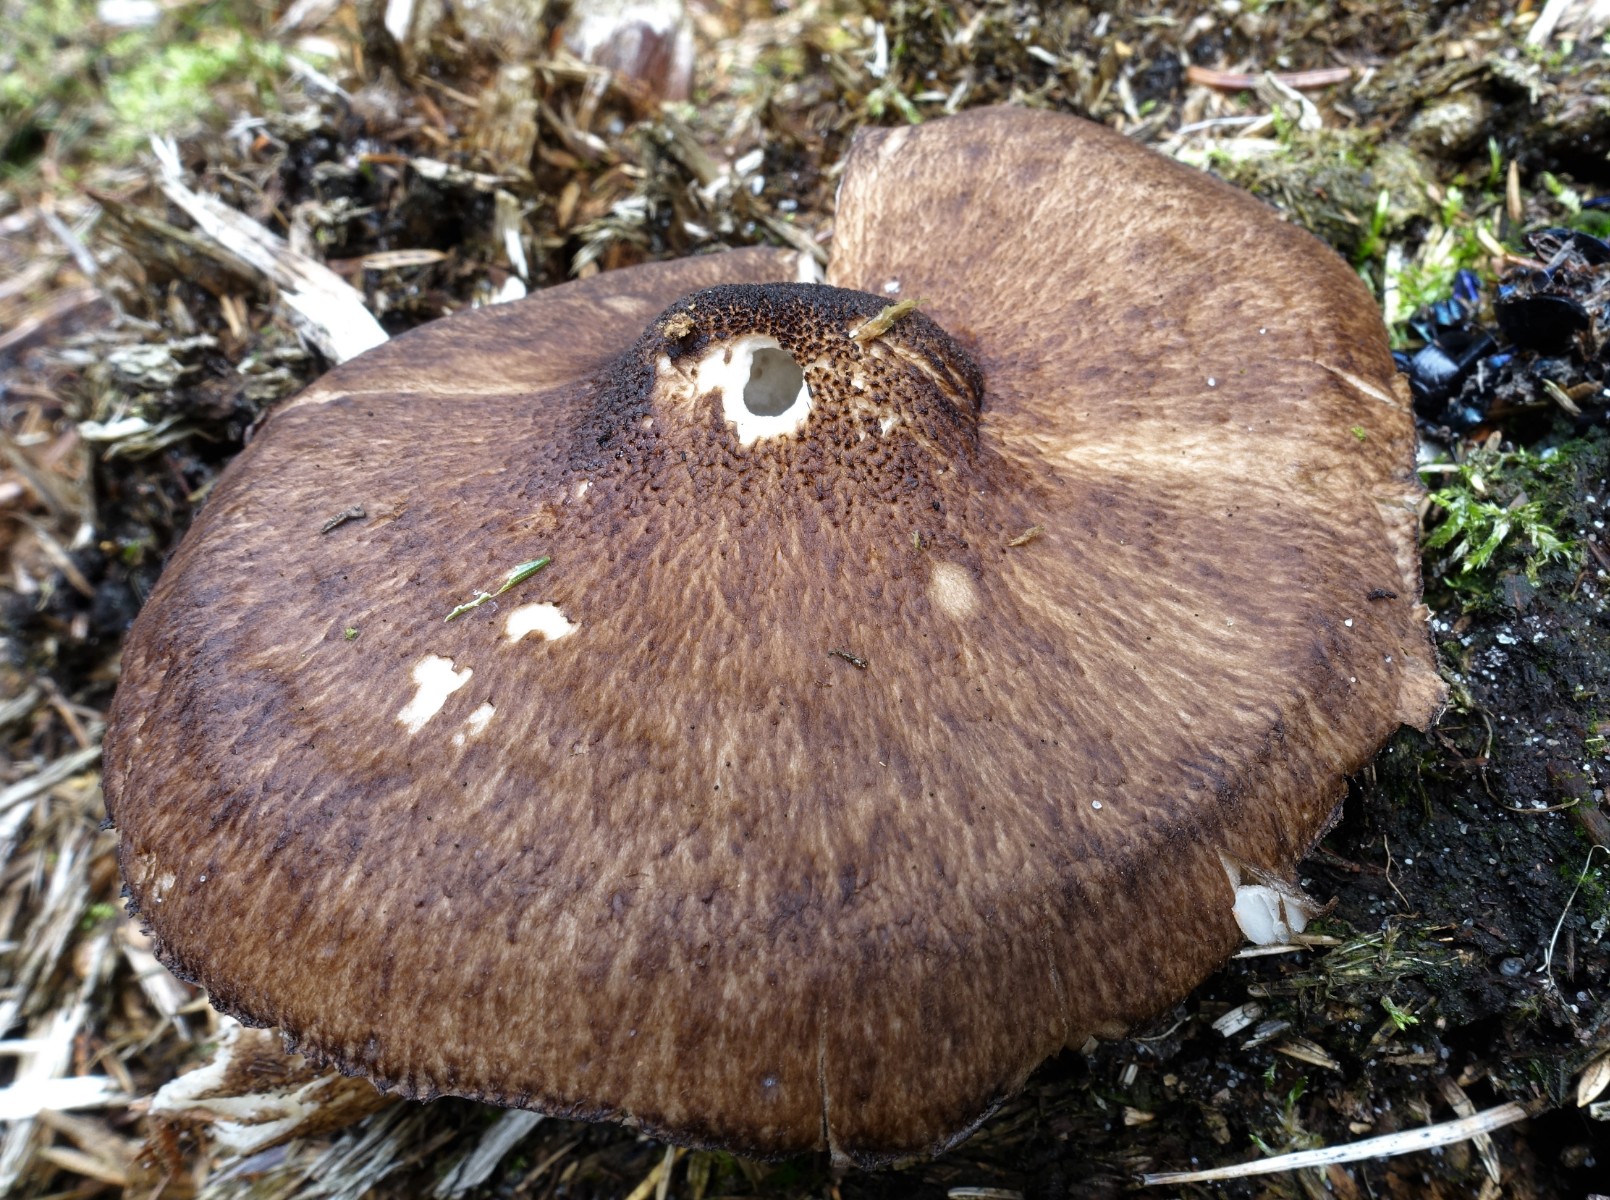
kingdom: Fungi
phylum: Basidiomycota
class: Agaricomycetes
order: Agaricales
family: Pluteaceae
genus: Pluteus
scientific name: Pluteus atromarginatus
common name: sortrandet skærmhat
